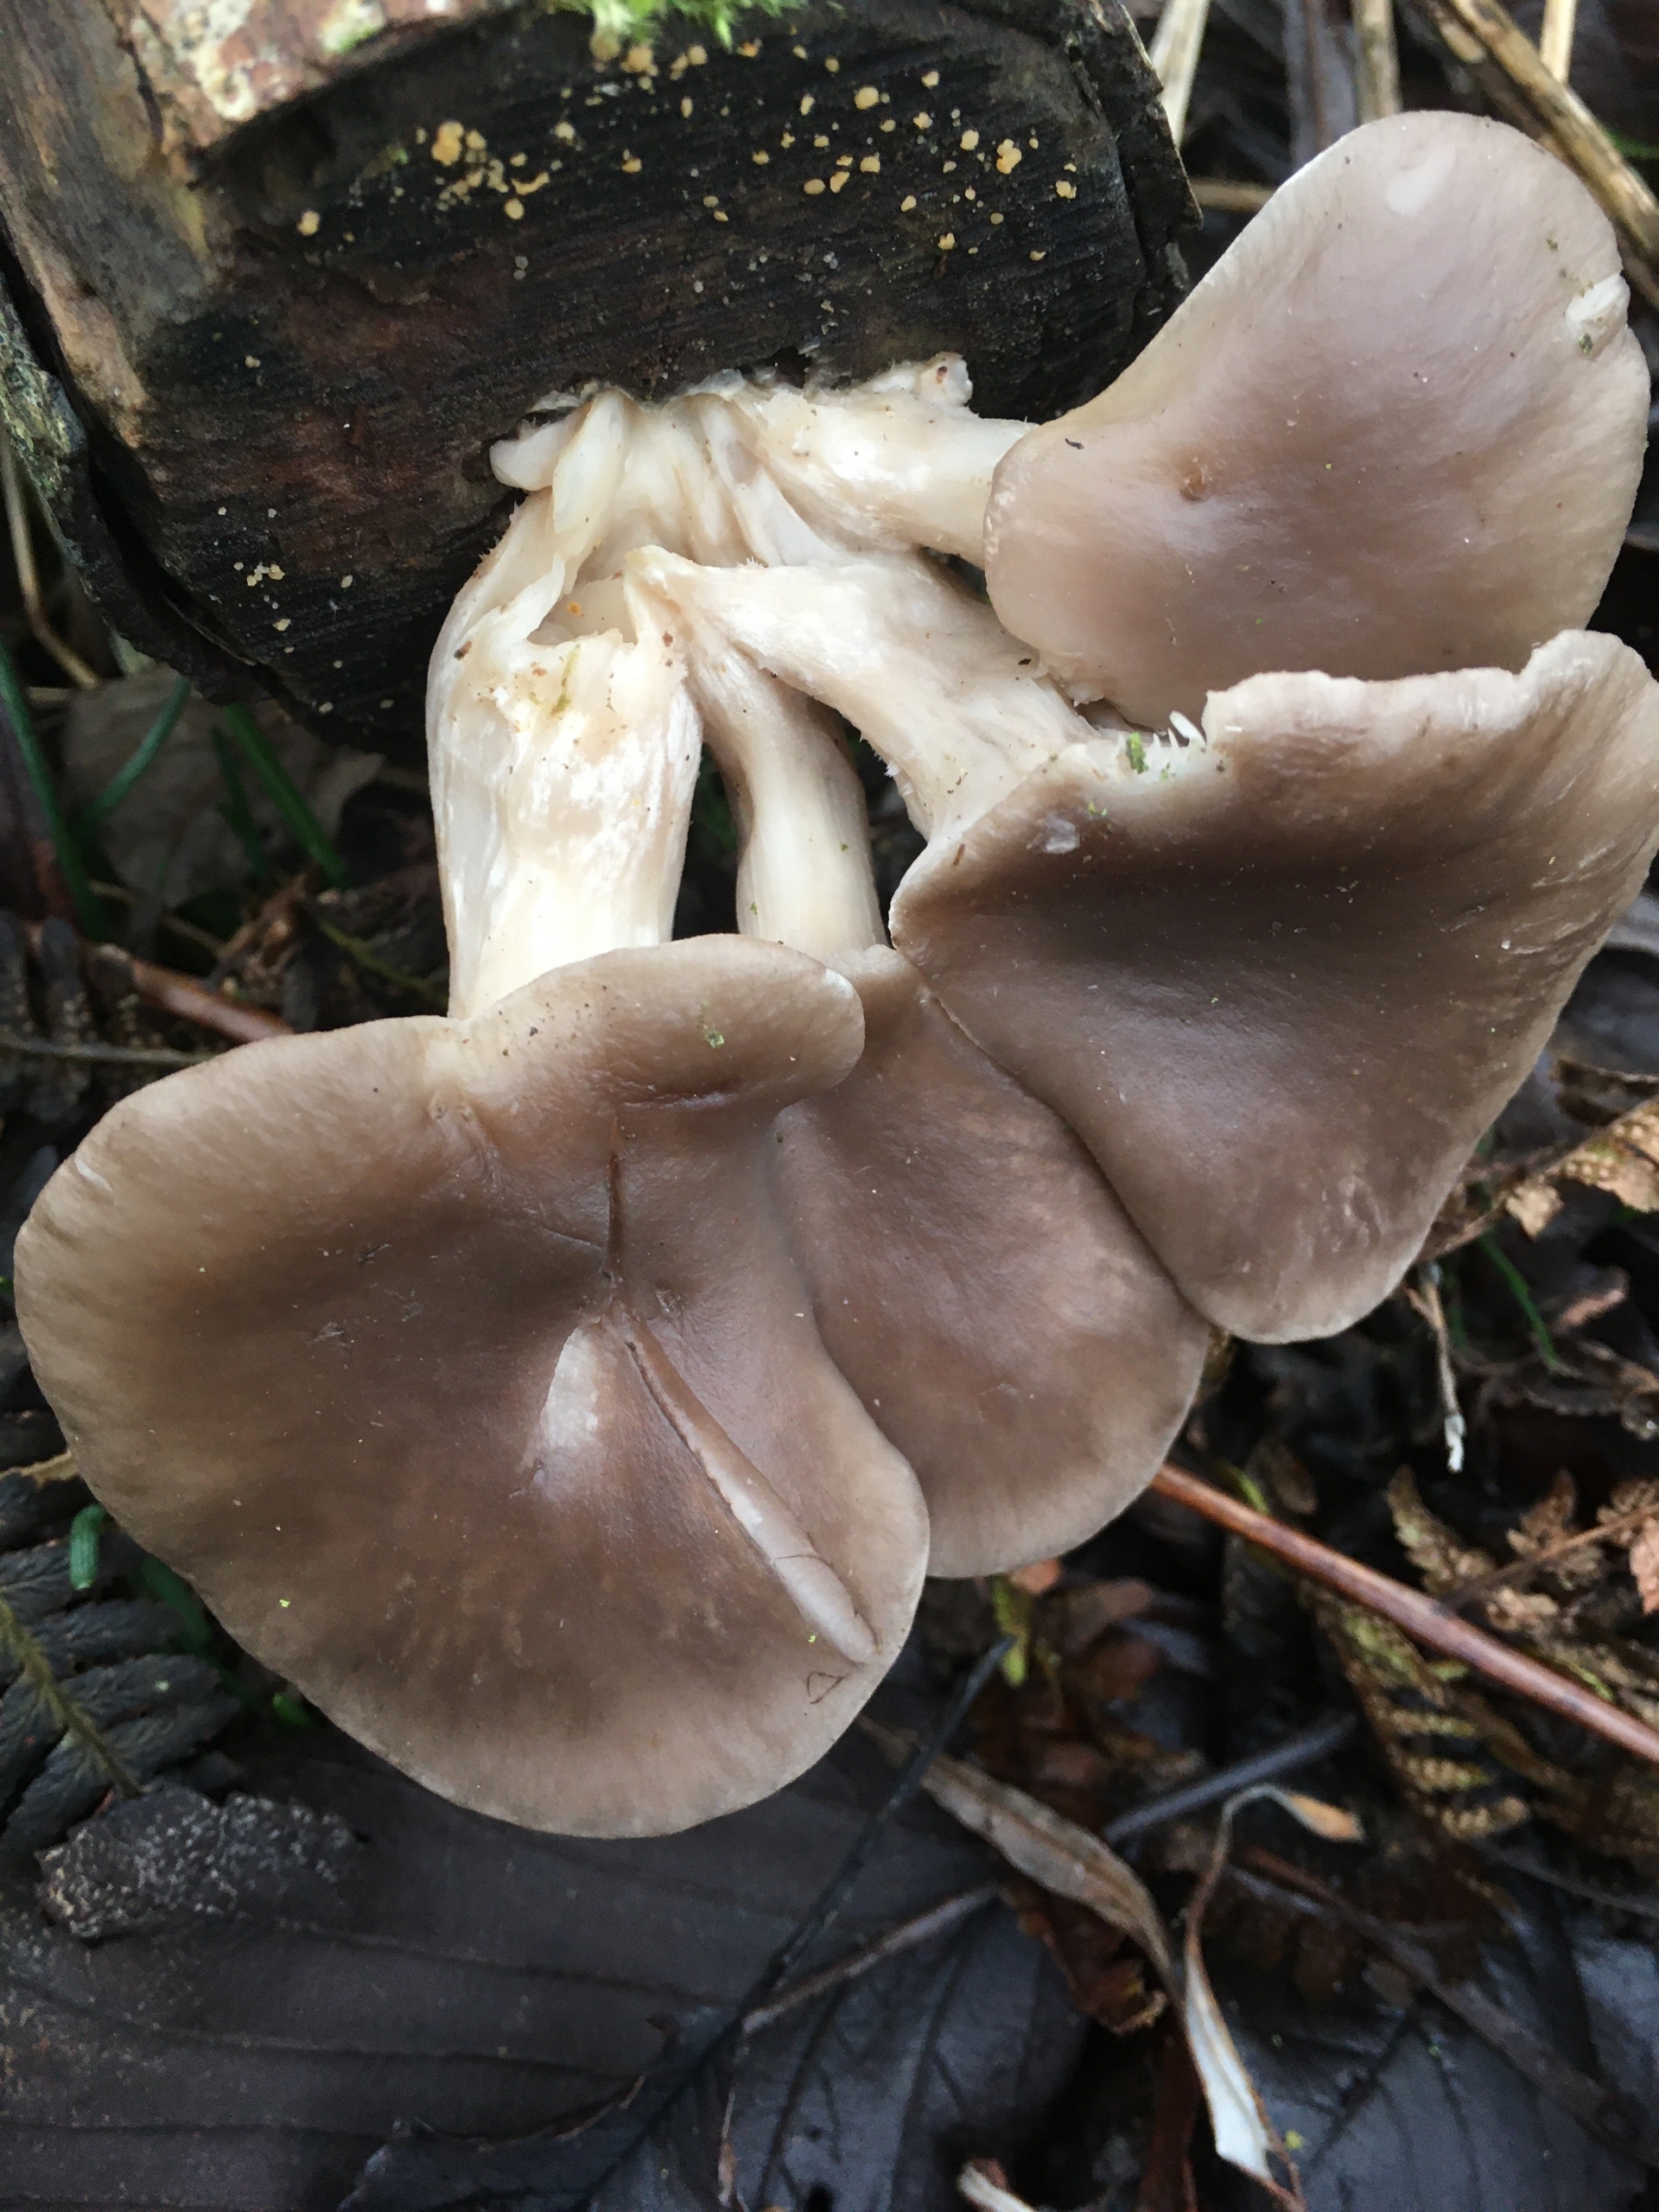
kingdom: Fungi
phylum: Basidiomycota
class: Agaricomycetes
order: Agaricales
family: Pleurotaceae
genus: Pleurotus
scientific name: Pleurotus ostreatus
